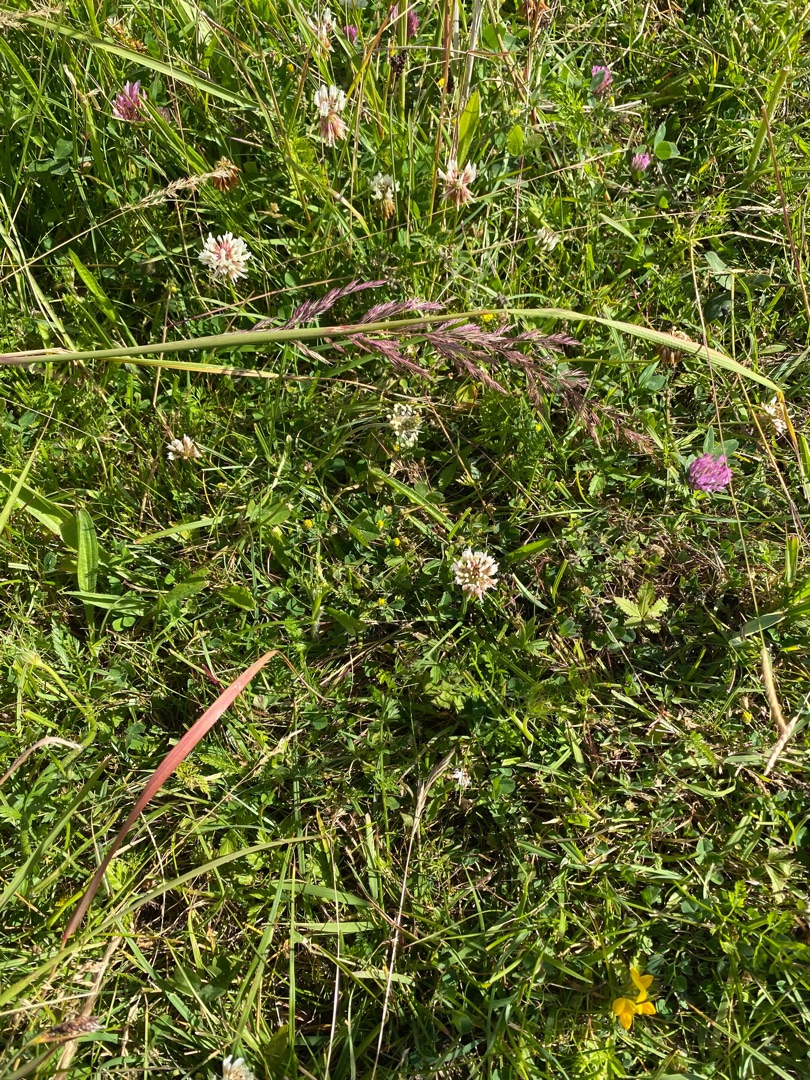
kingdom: Plantae
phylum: Tracheophyta
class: Magnoliopsida
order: Fabales
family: Fabaceae
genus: Trifolium
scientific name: Trifolium repens
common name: Hvid-kløver
